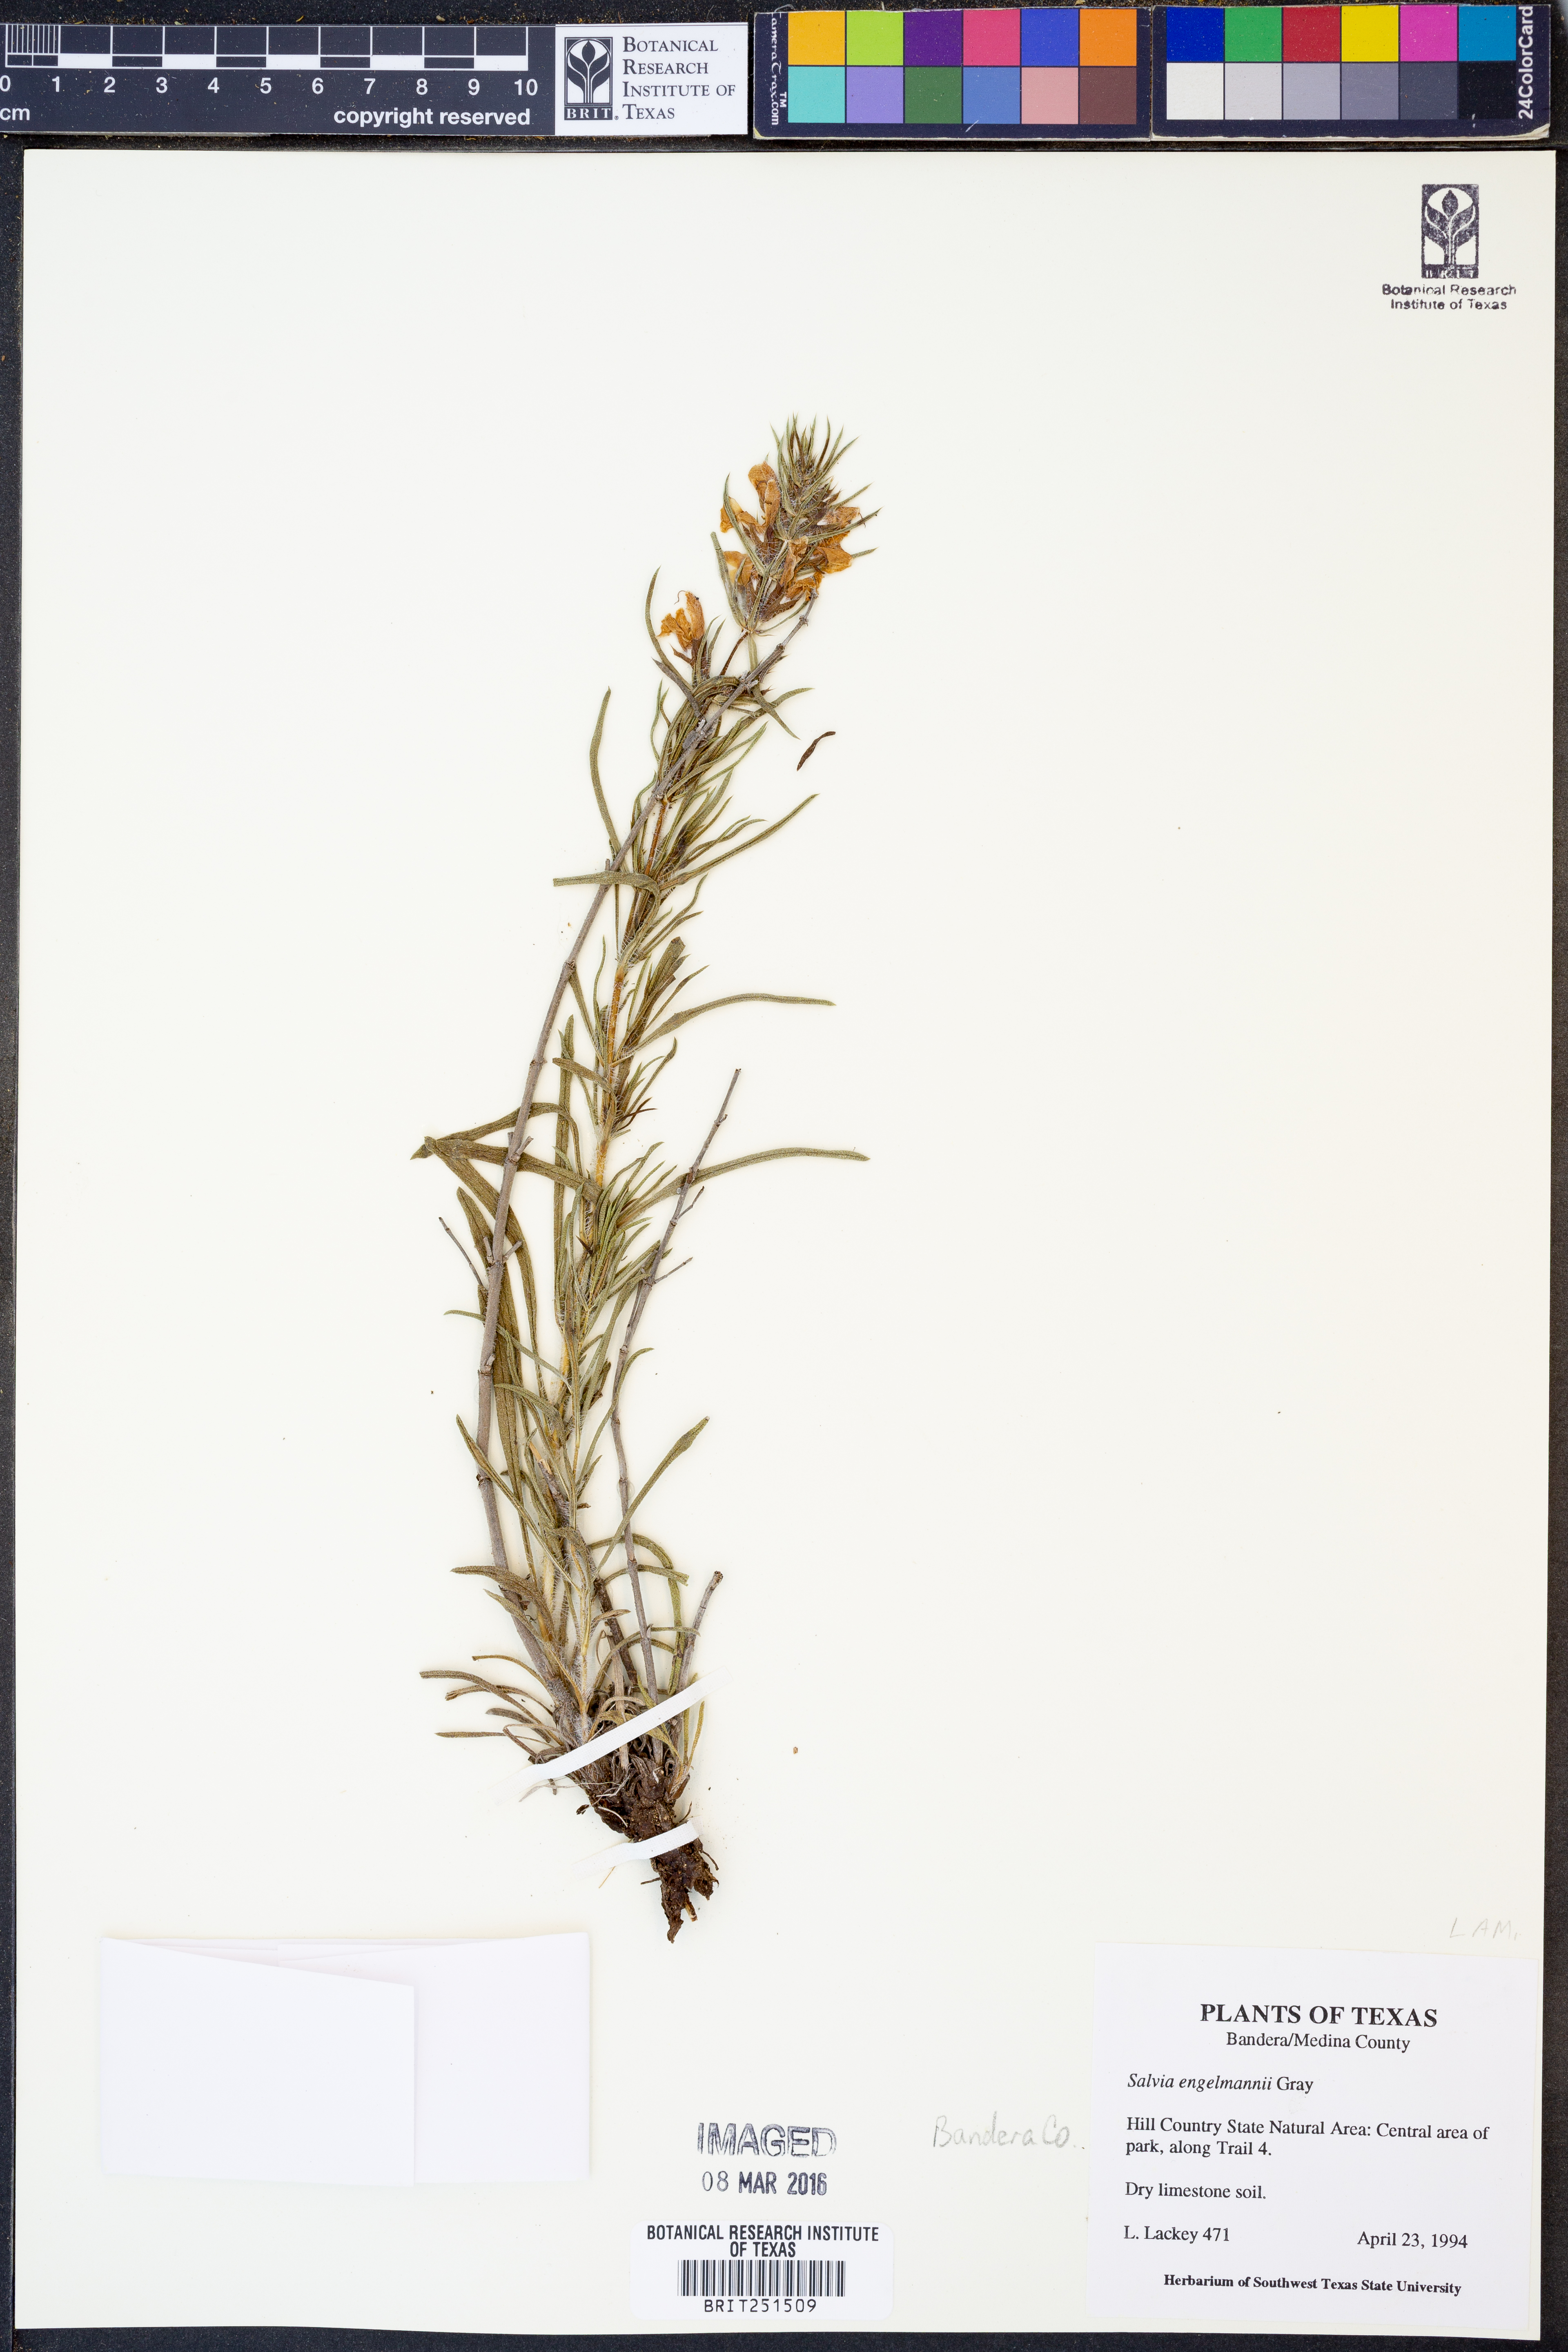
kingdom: Plantae
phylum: Tracheophyta
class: Magnoliopsida
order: Lamiales
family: Lamiaceae
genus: Salvia
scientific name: Salvia engelmannii
